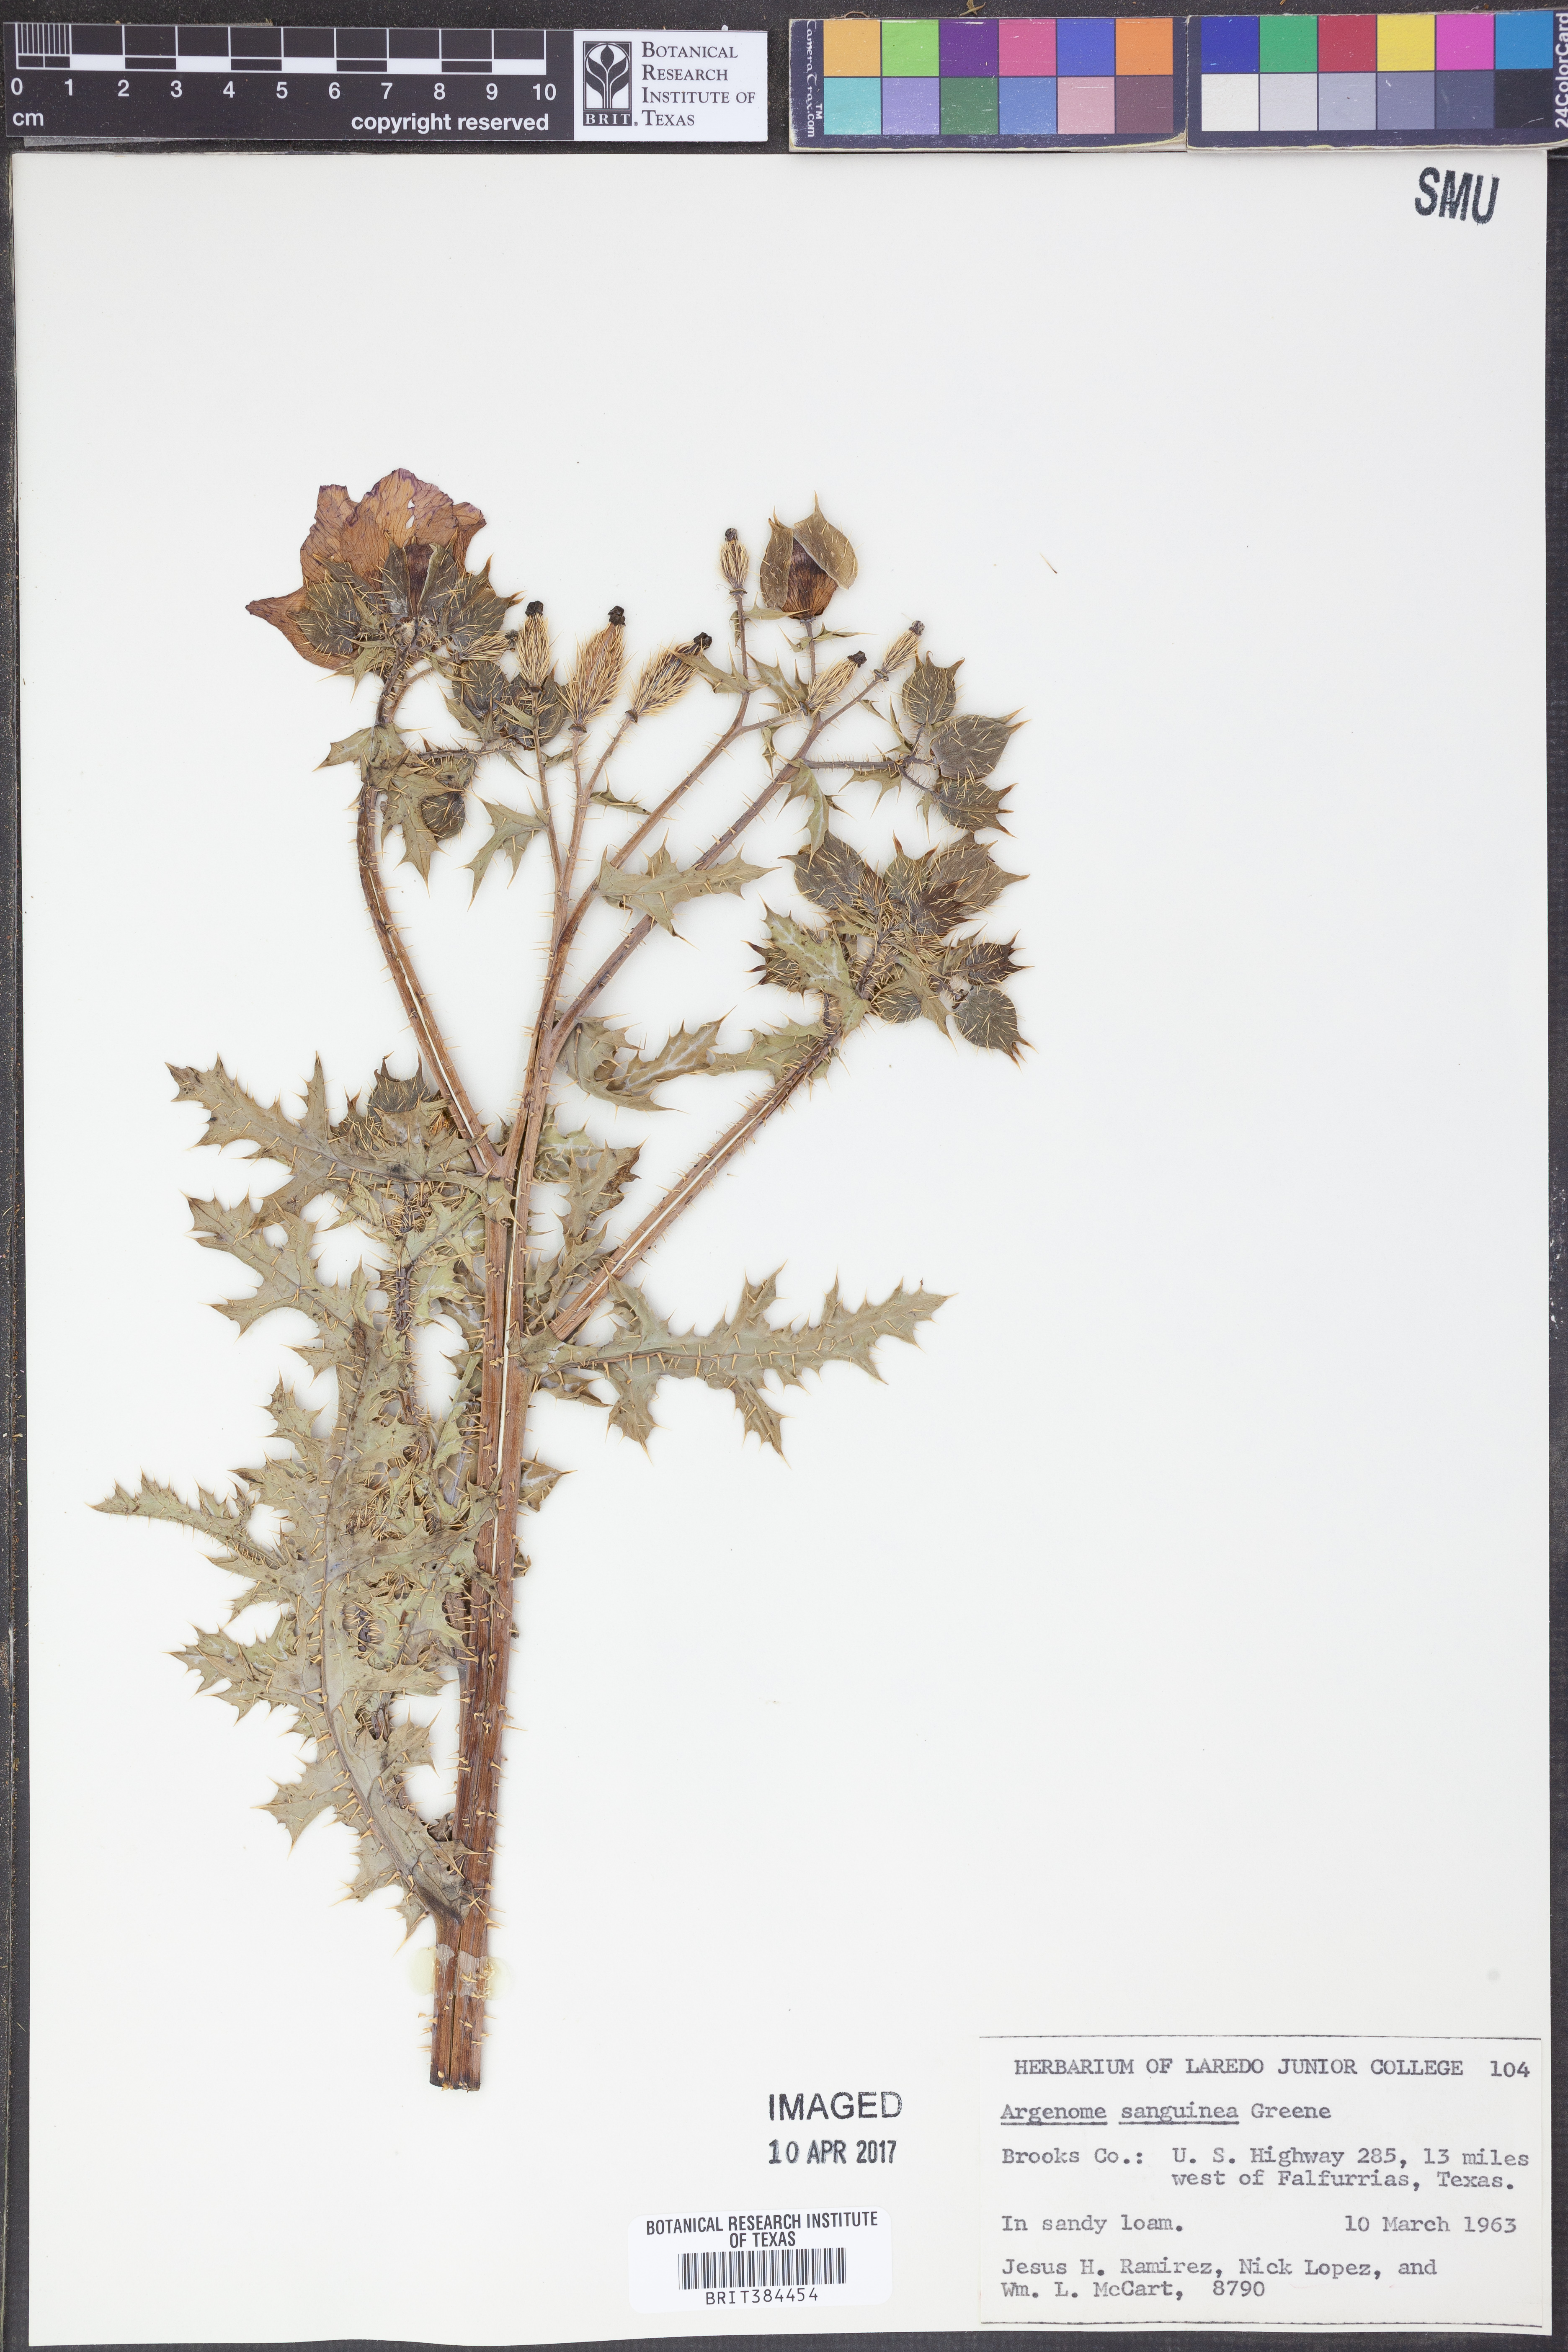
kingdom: Plantae
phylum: Tracheophyta
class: Magnoliopsida
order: Ranunculales
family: Papaveraceae
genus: Argemone
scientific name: Argemone sanguinea
